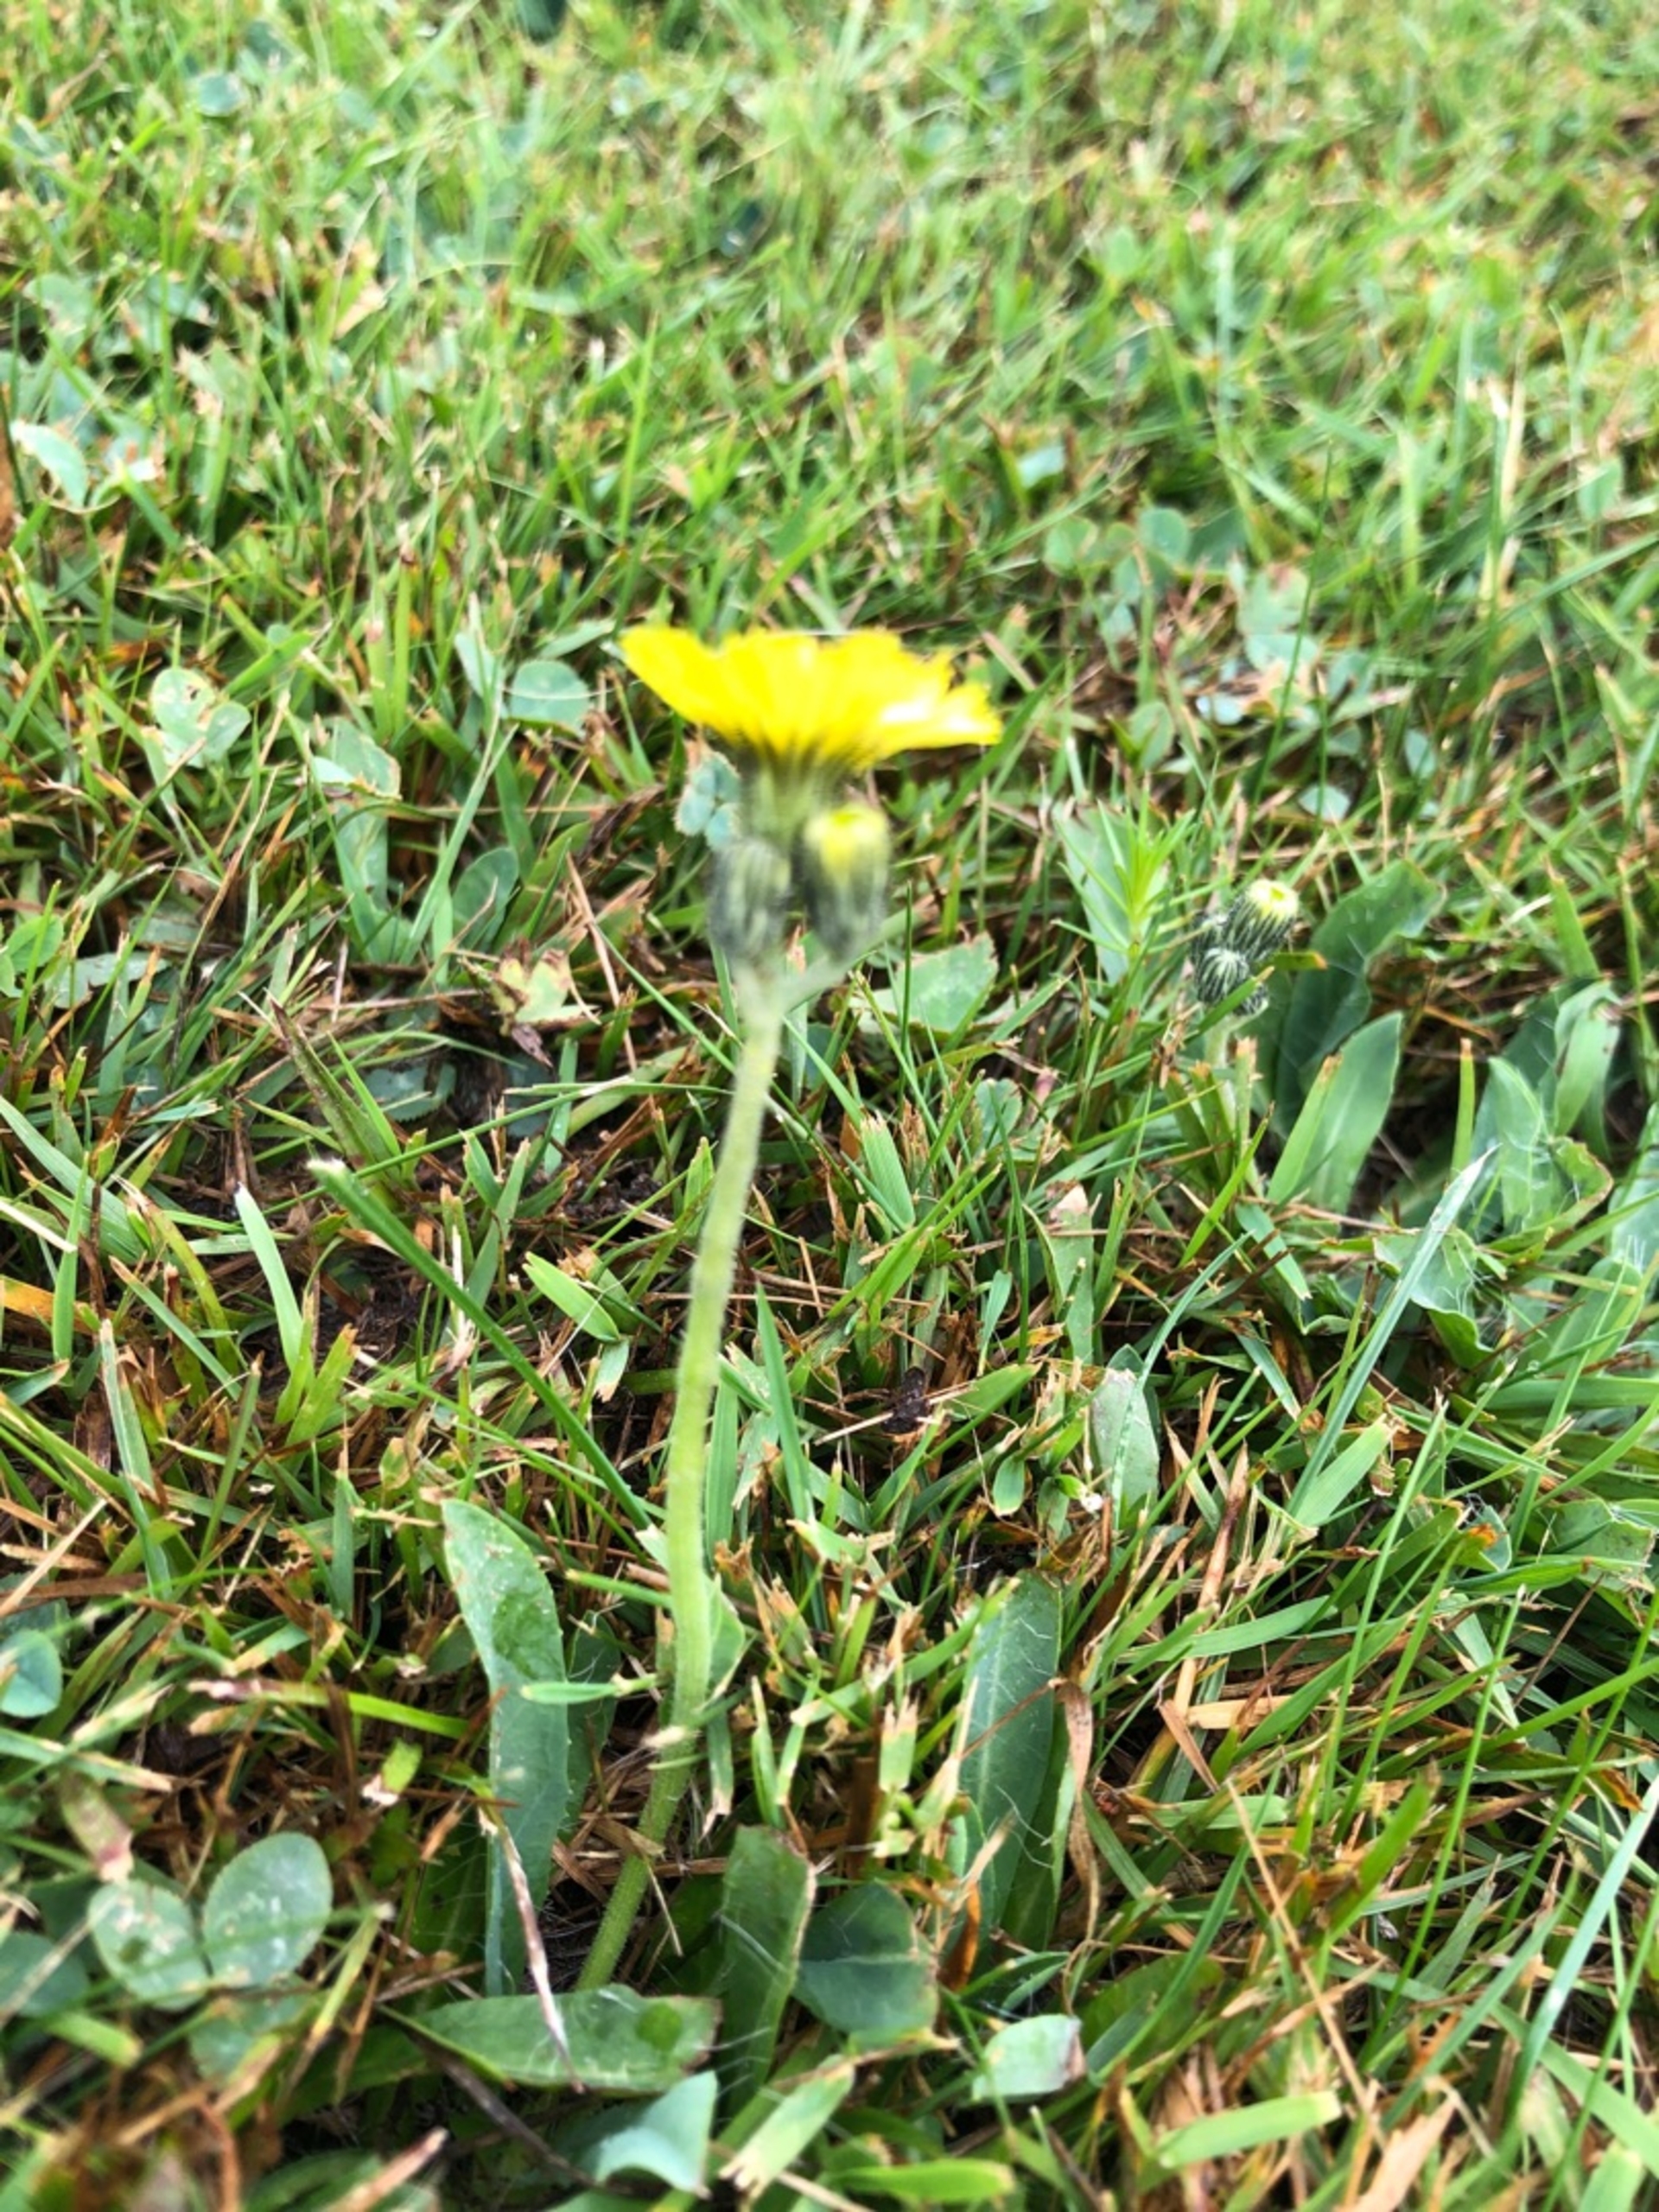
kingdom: Plantae
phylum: Tracheophyta
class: Magnoliopsida
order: Asterales
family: Asteraceae
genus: Pilosella
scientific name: Pilosella lactucella
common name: Lancetbladet høgeurt
